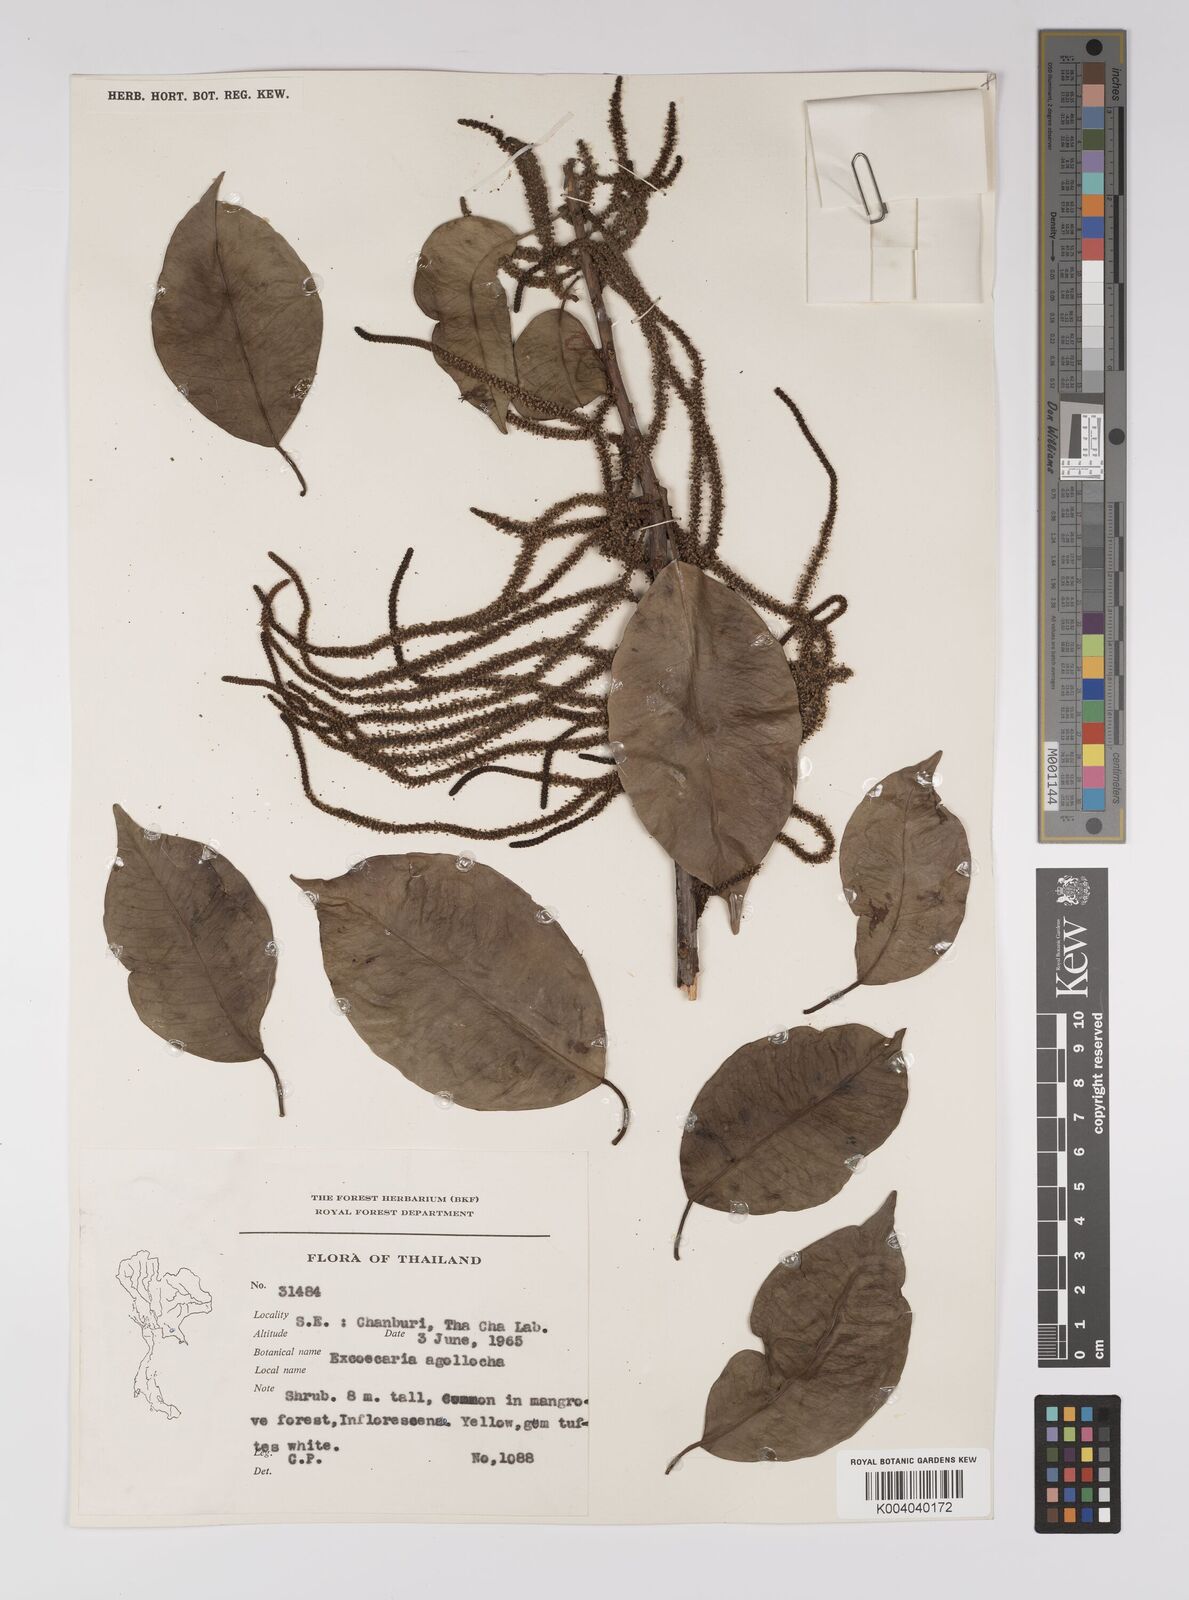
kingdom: Plantae
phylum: Tracheophyta
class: Magnoliopsida
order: Malpighiales
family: Euphorbiaceae
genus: Excoecaria
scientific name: Excoecaria agallocha
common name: River poisontree
